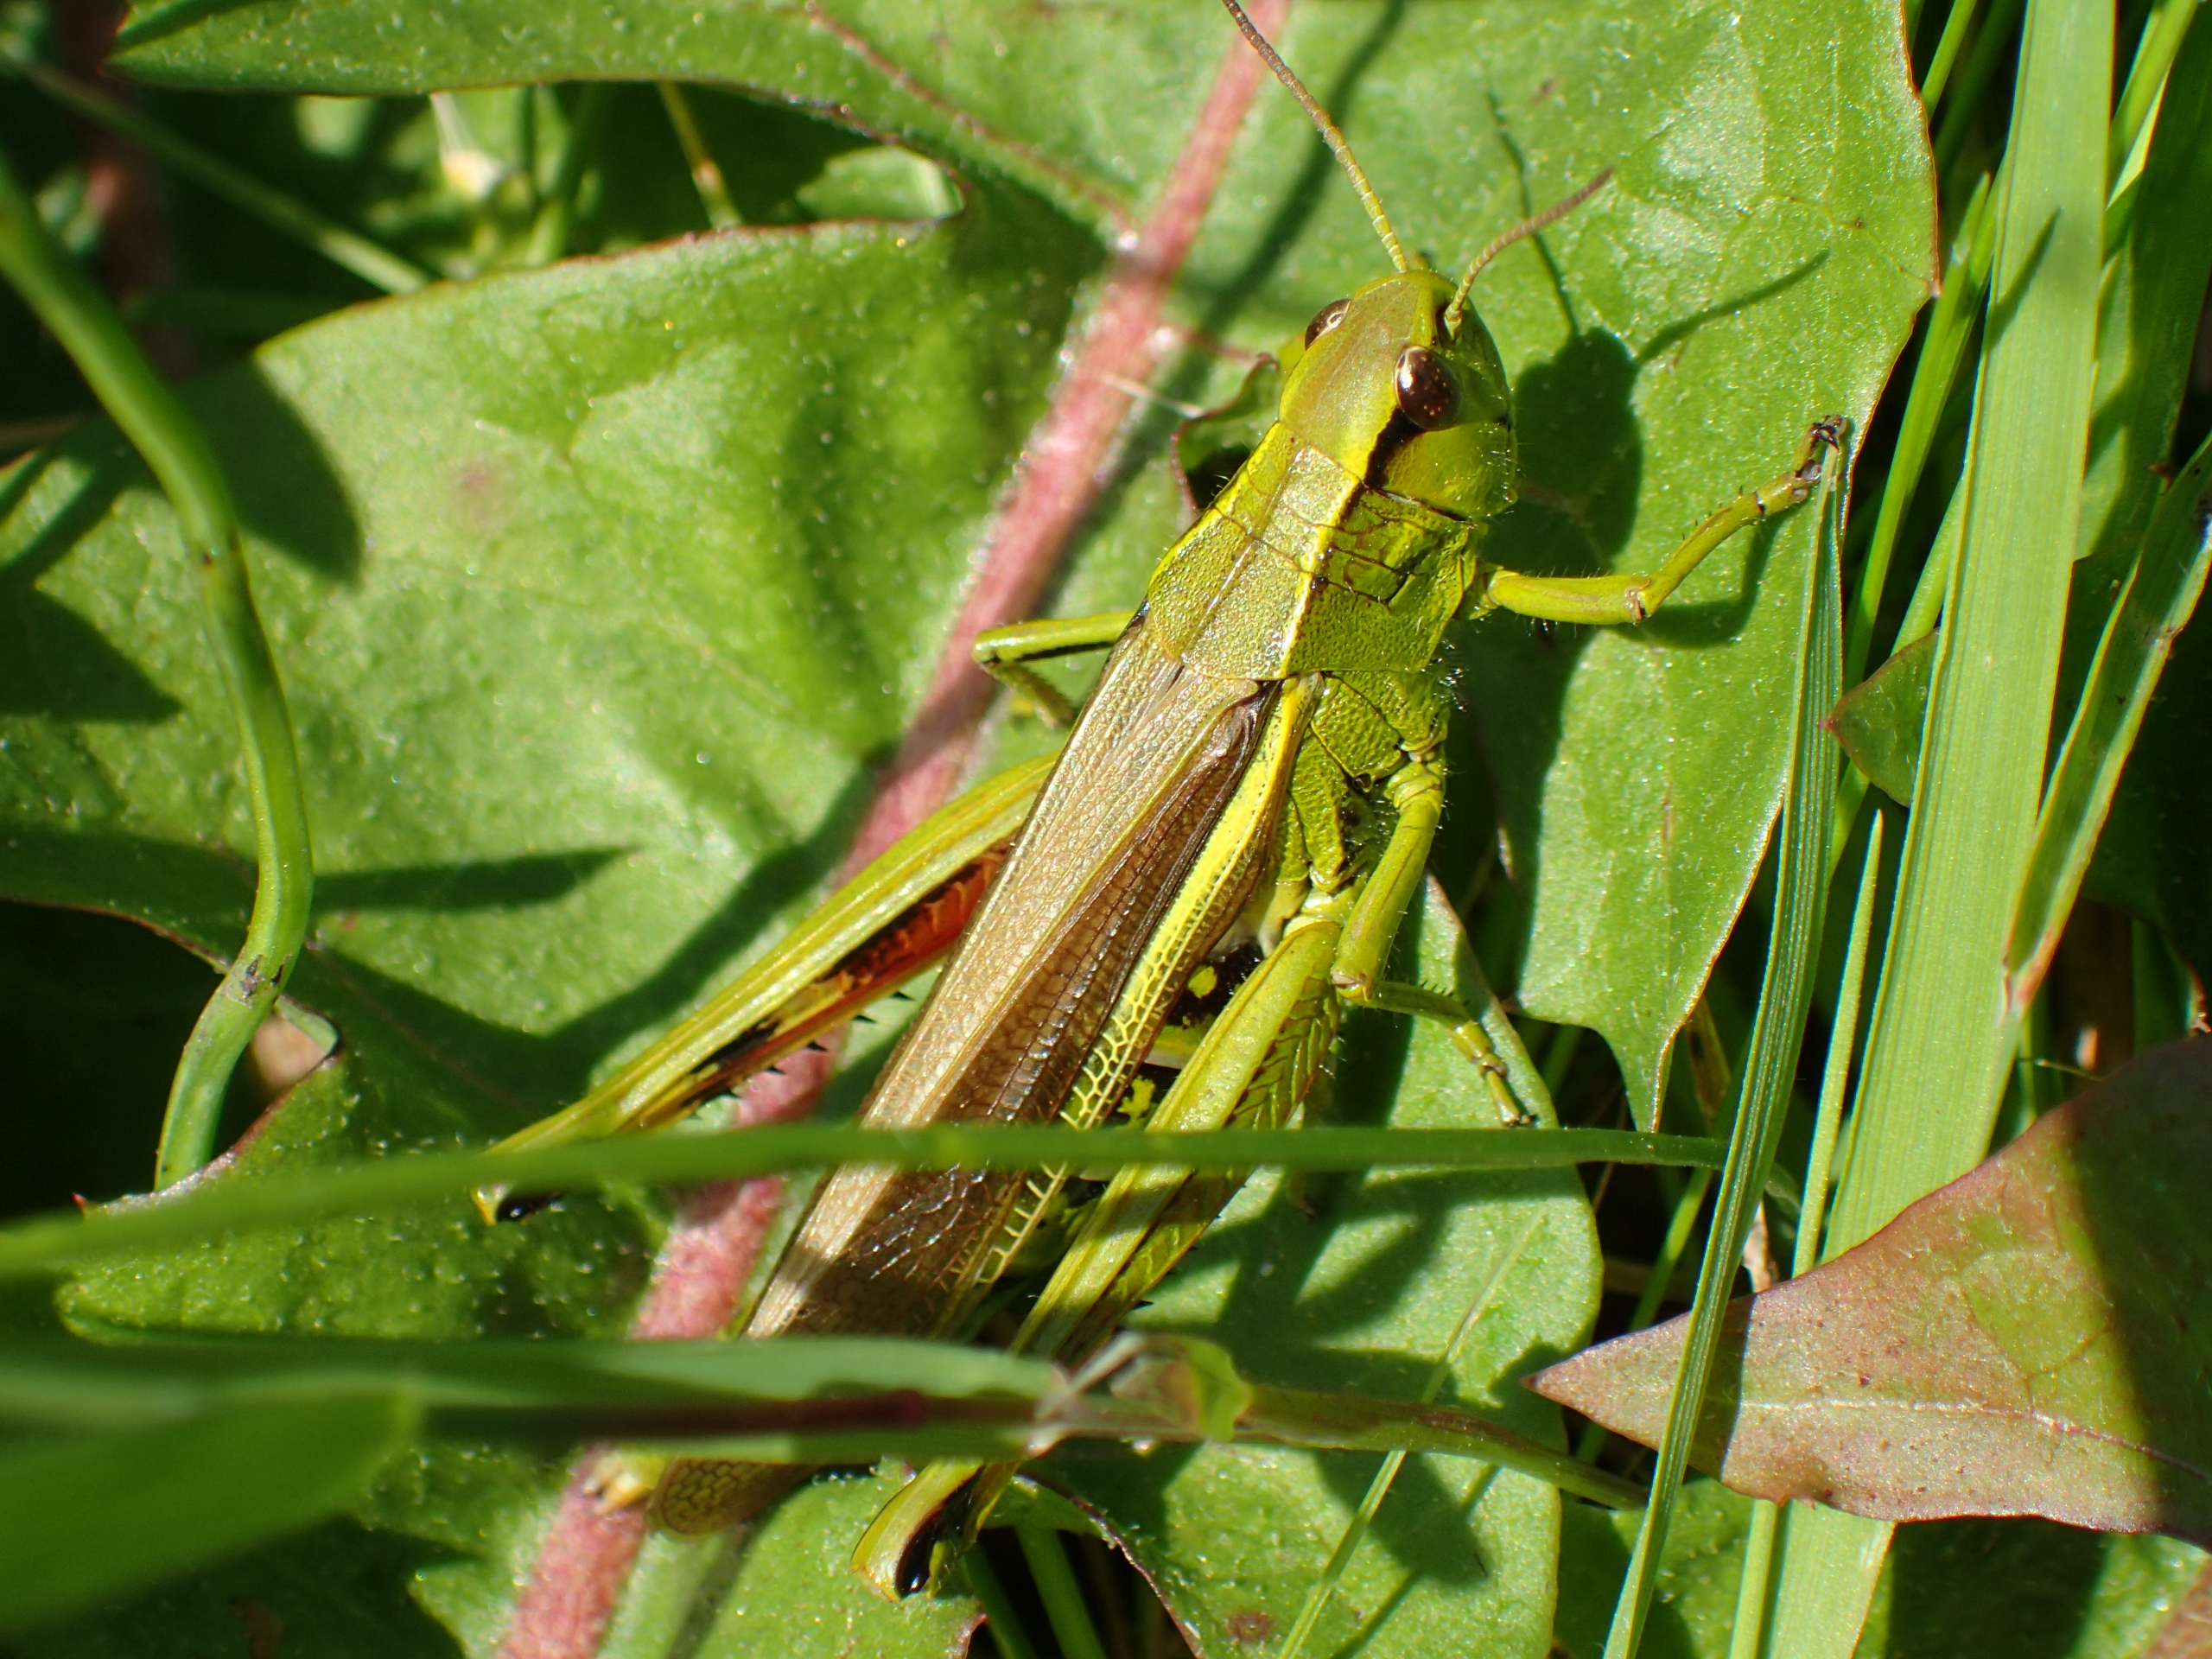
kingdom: Animalia
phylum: Arthropoda
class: Insecta
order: Orthoptera
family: Acrididae
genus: Stethophyma
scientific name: Stethophyma grossum
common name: Sumpgræshoppe
